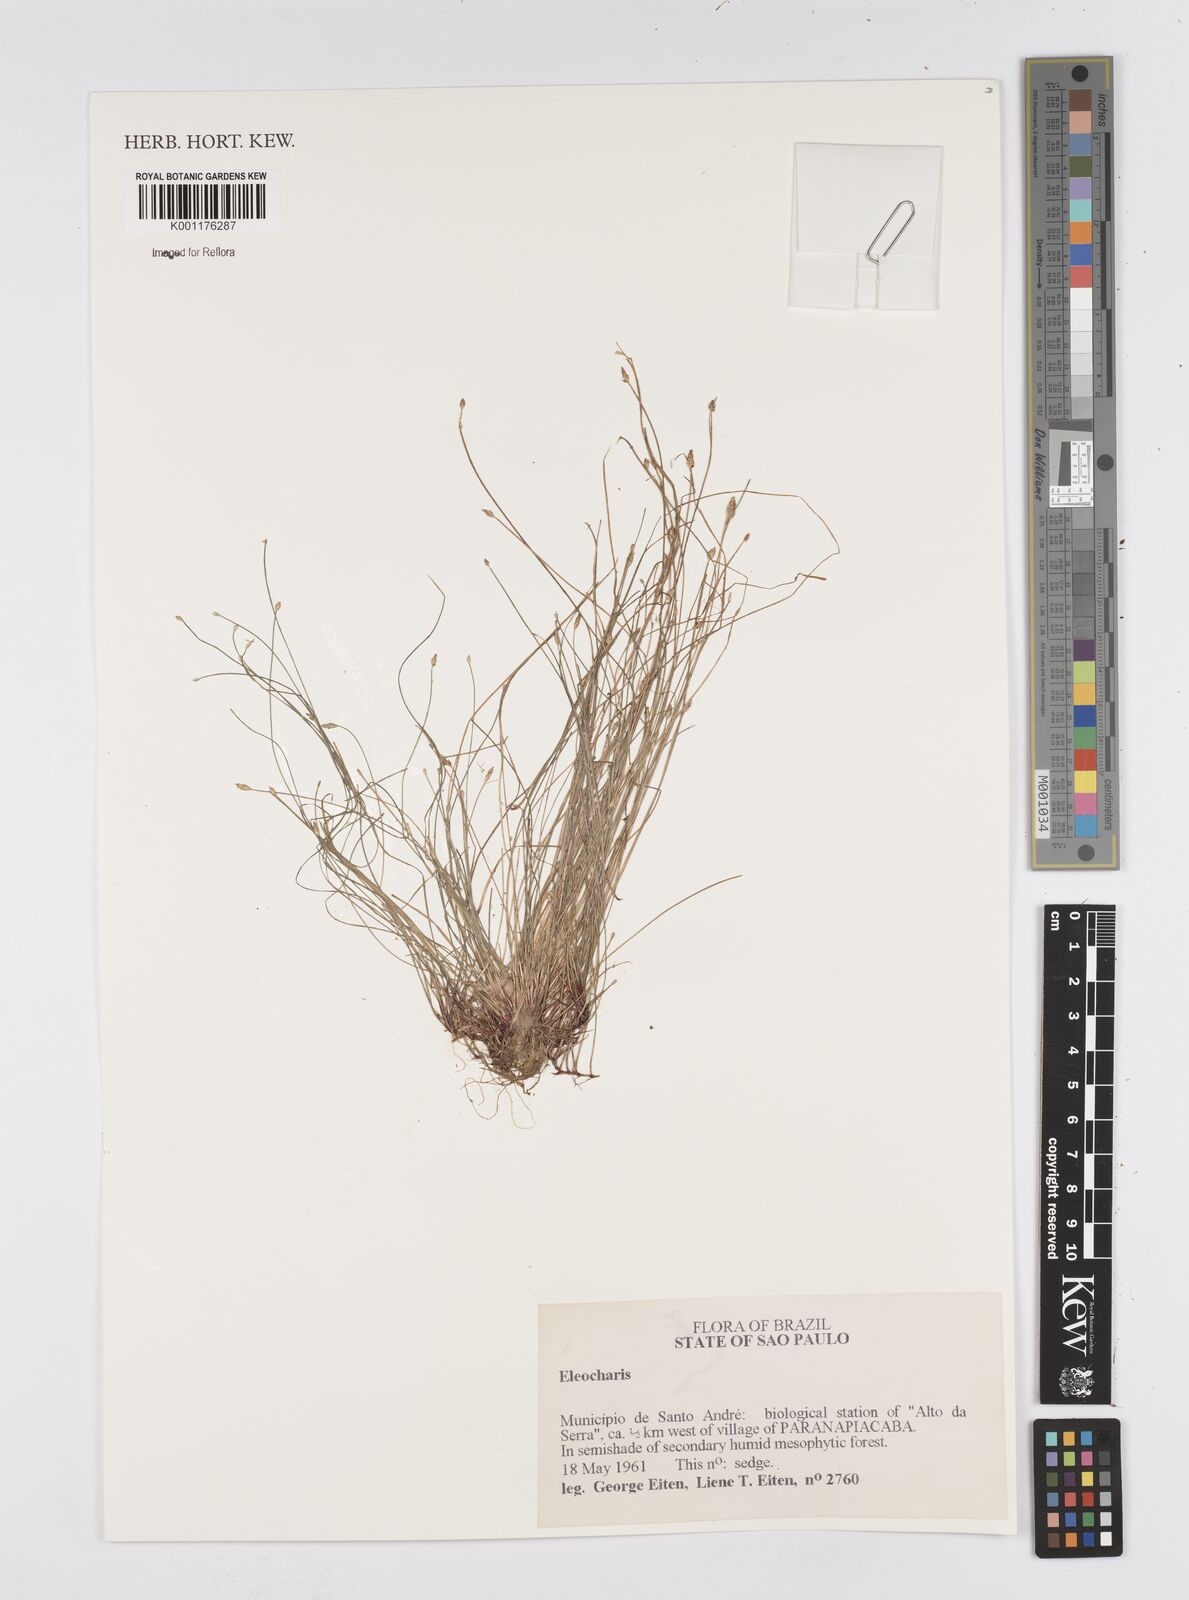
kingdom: Plantae
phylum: Tracheophyta
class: Liliopsida
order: Poales
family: Cyperaceae
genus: Eleocharis
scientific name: Eleocharis
